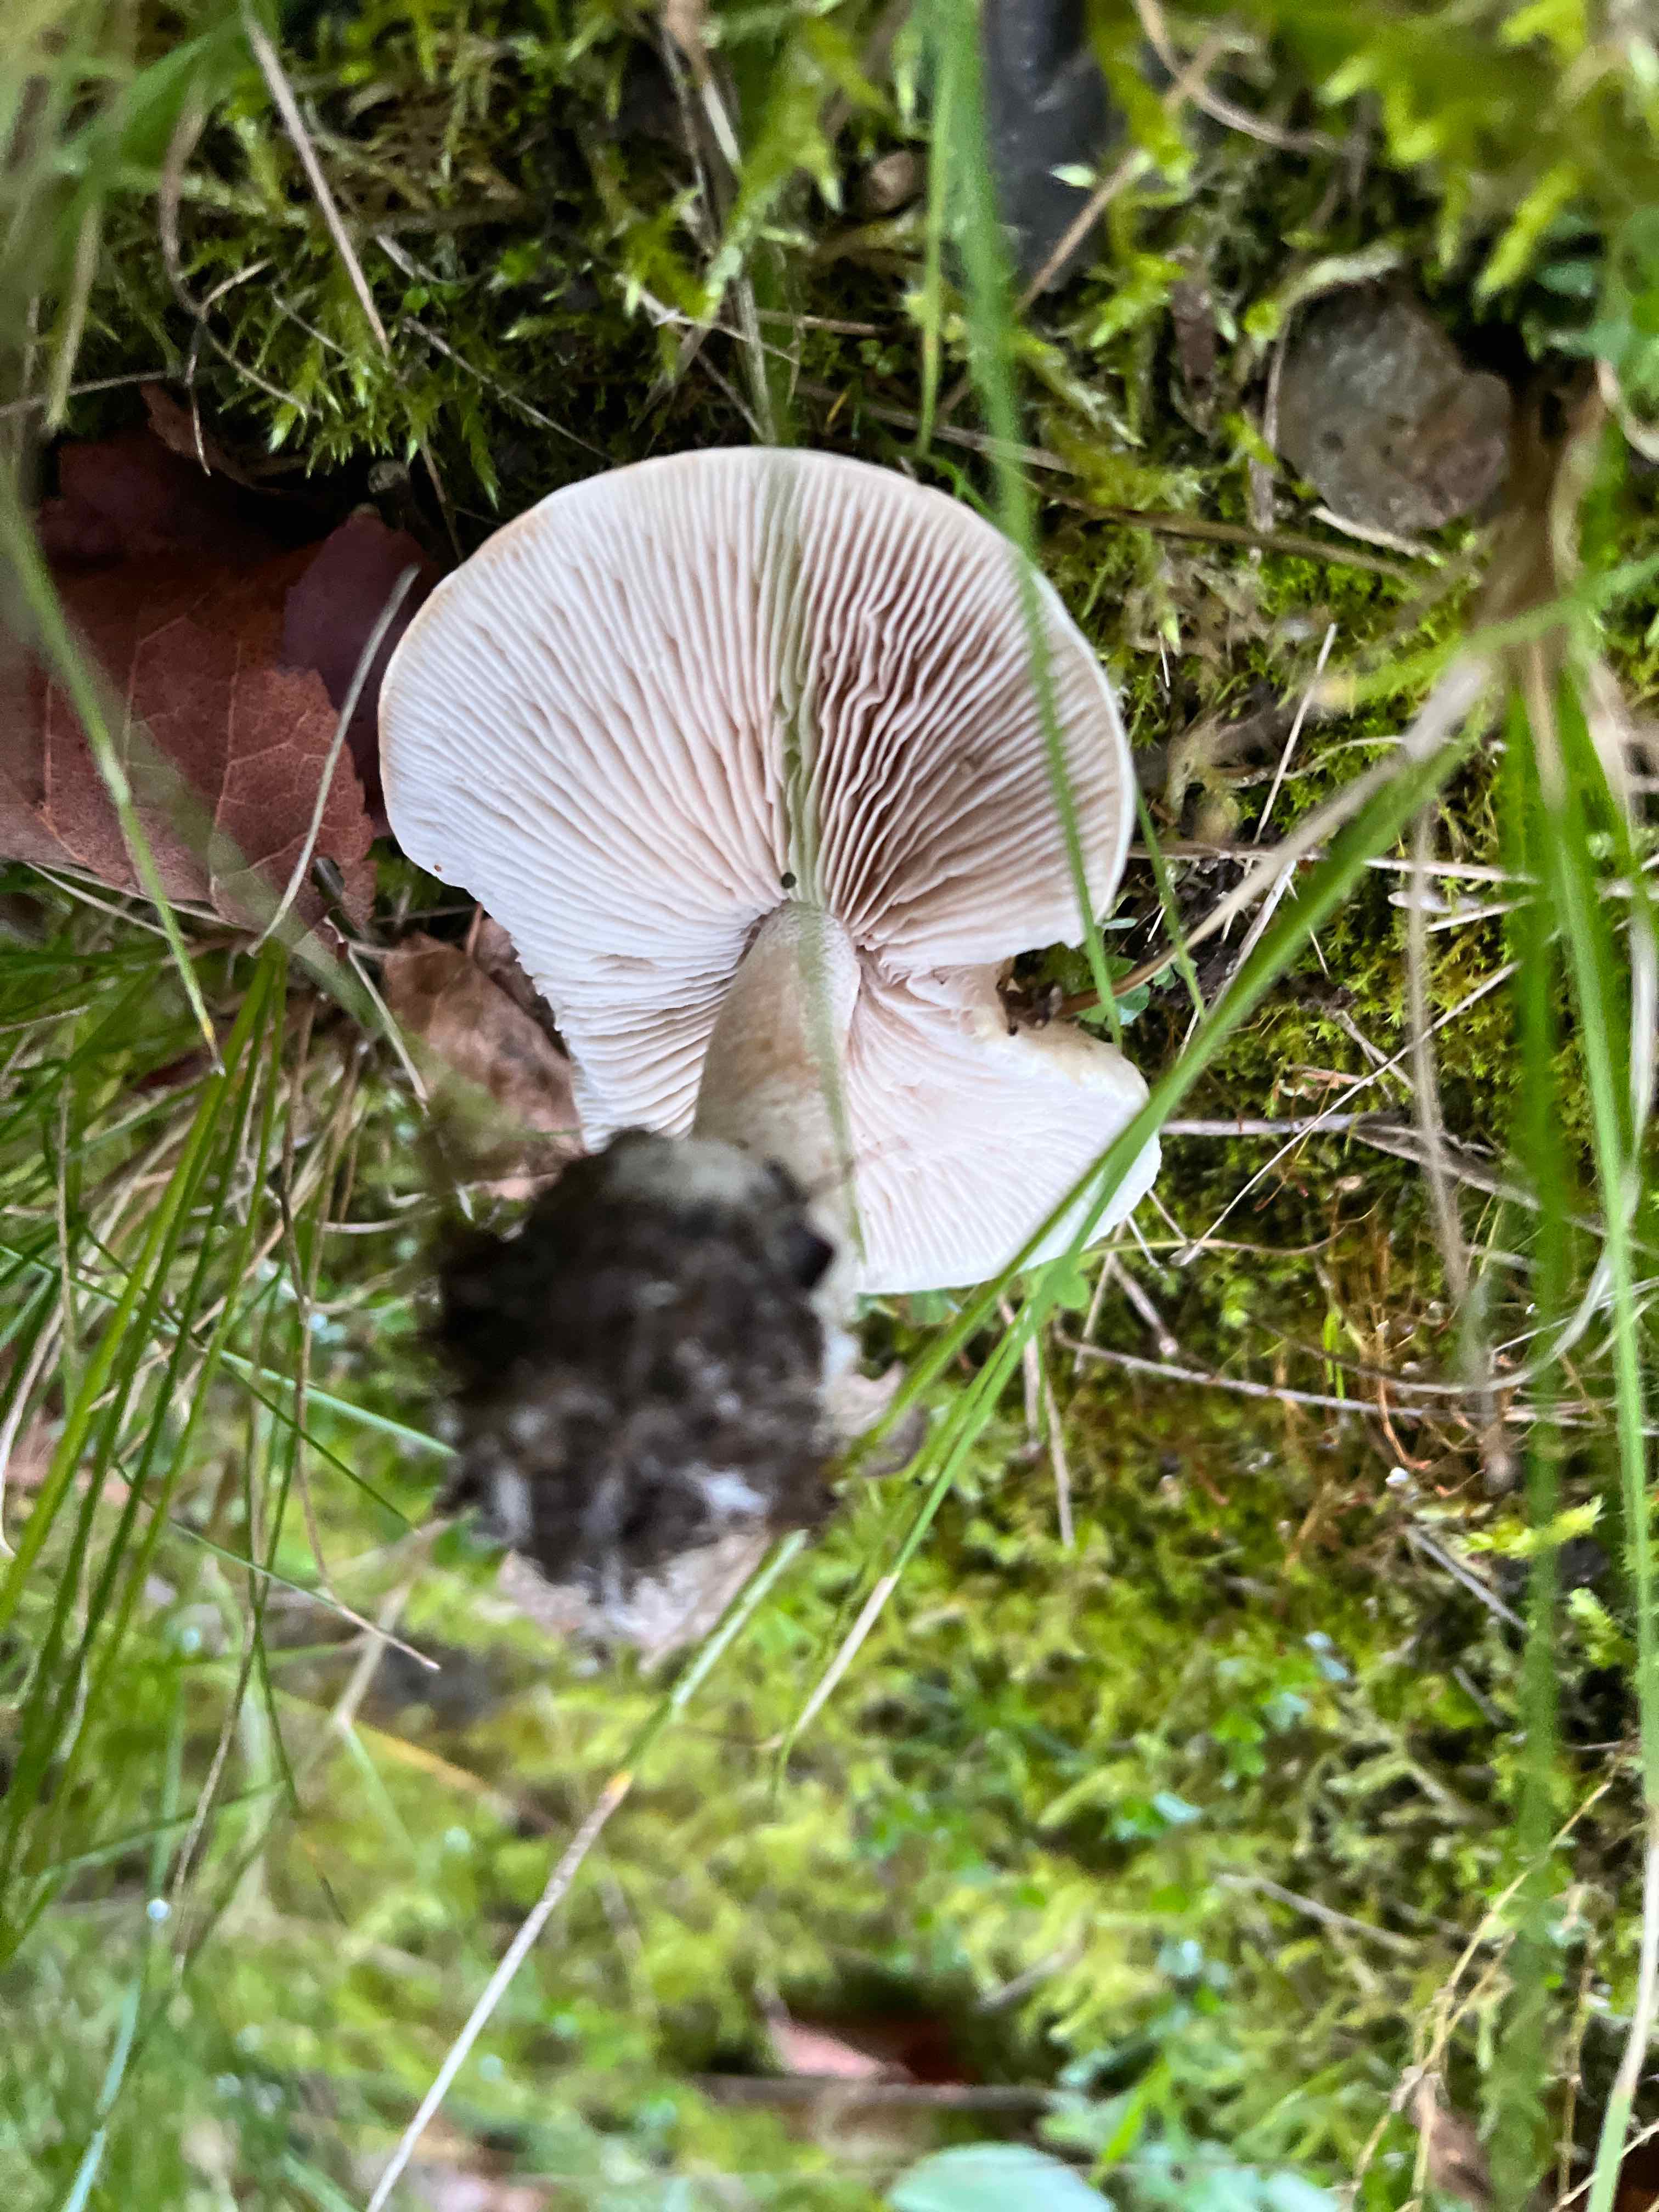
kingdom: Fungi
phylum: Basidiomycota
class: Agaricomycetes
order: Agaricales
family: Hymenogastraceae
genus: Hebeloma
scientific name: Hebeloma crustuliniforme
